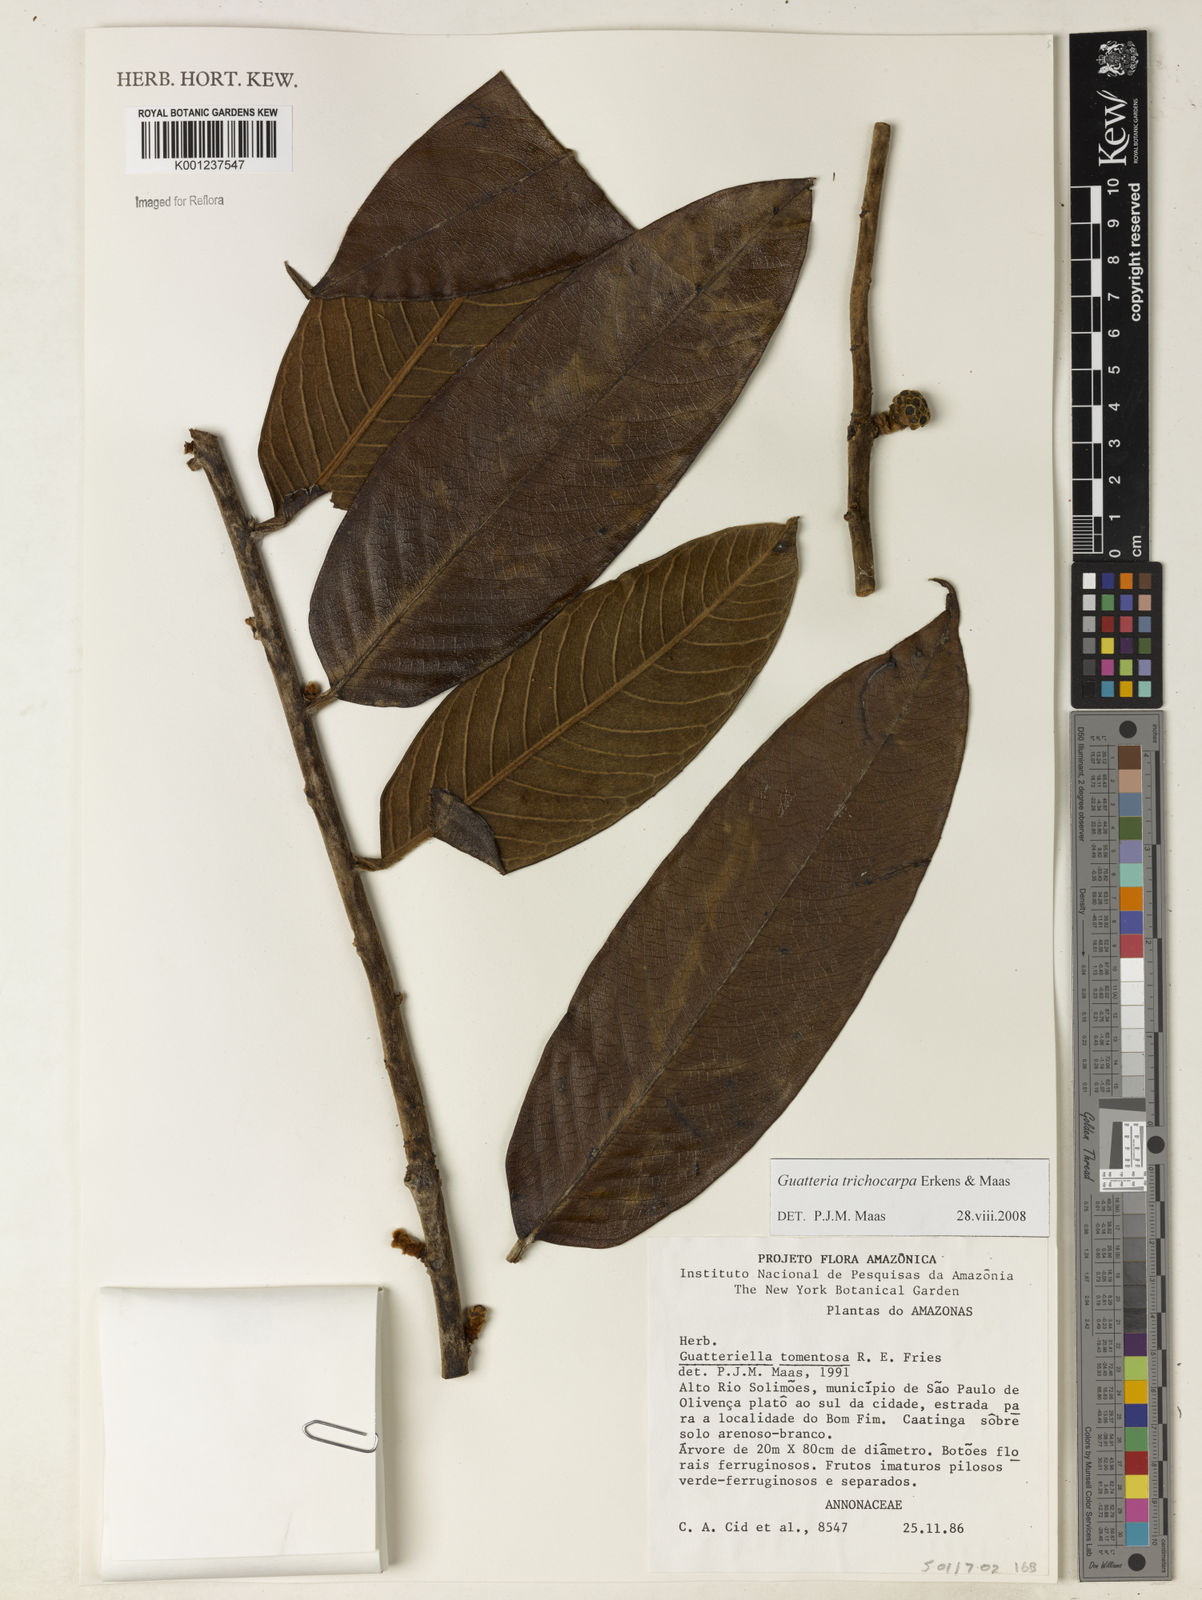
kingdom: Plantae
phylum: Tracheophyta
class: Magnoliopsida
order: Magnoliales
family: Annonaceae
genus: Guatteria
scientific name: Guatteria trichocarpa
